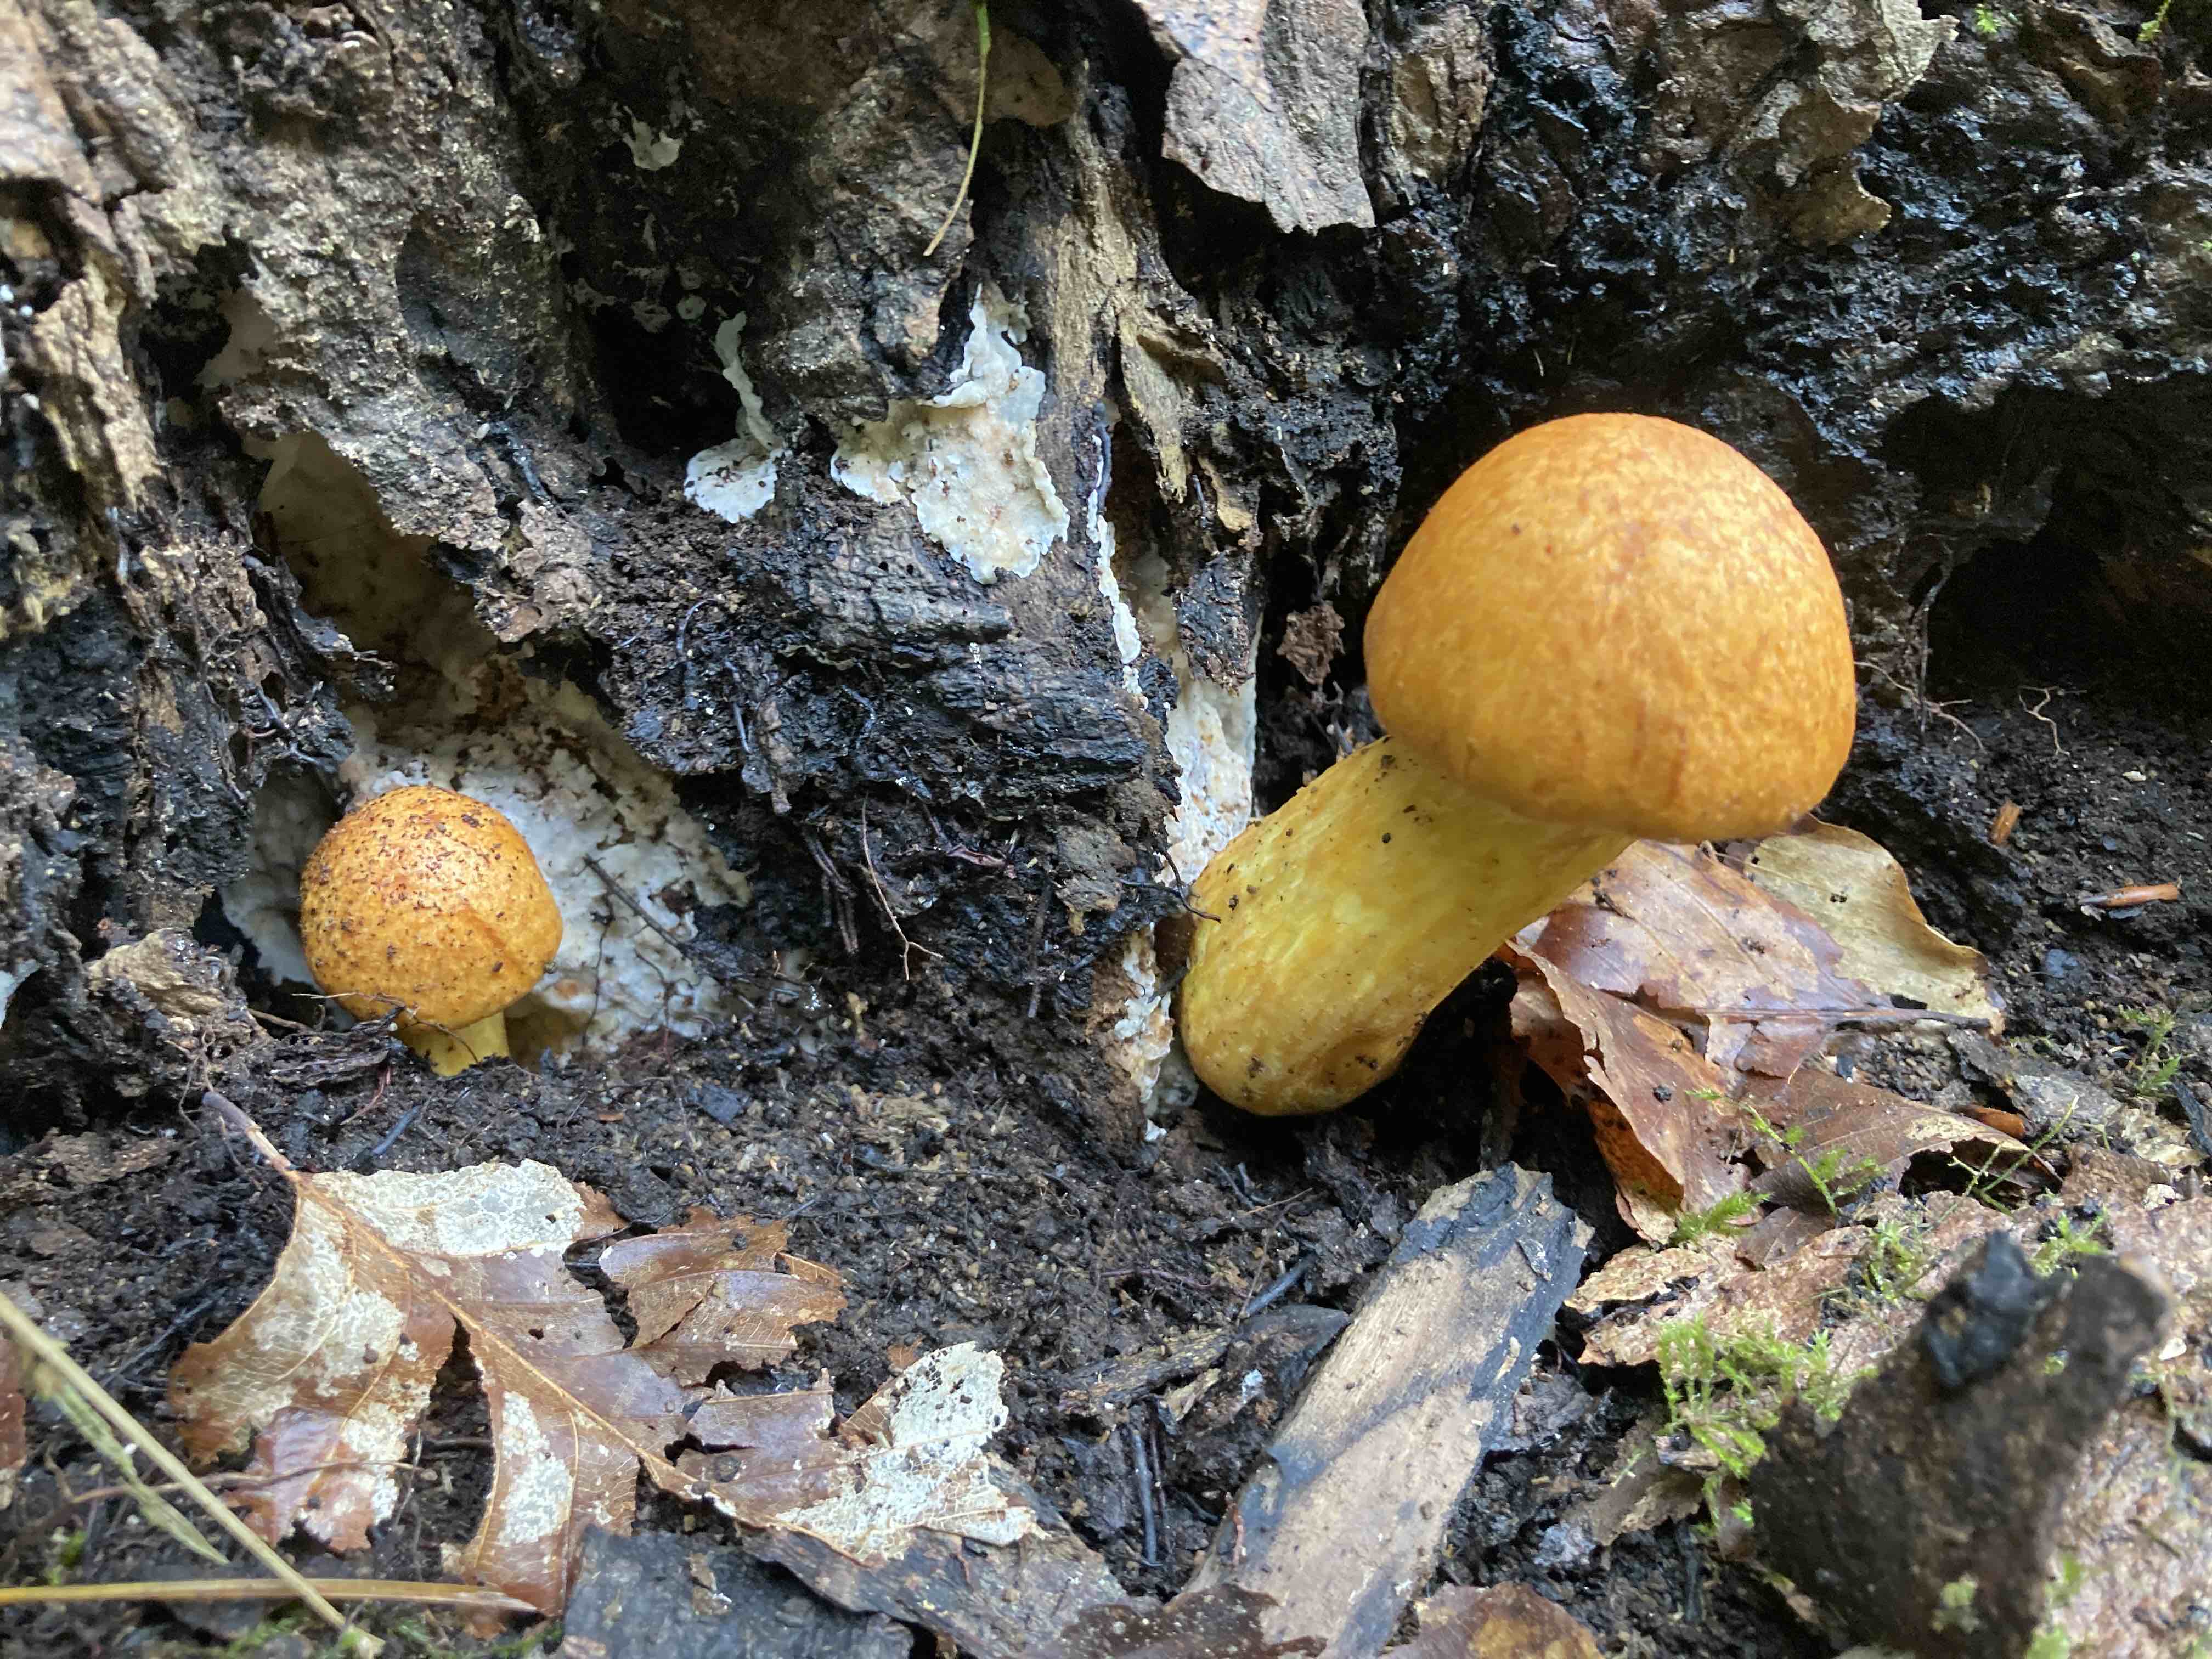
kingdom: Fungi
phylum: Basidiomycota
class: Agaricomycetes
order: Agaricales
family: Hymenogastraceae
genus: Gymnopilus
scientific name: Gymnopilus spectabilis
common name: fibret flammehat
